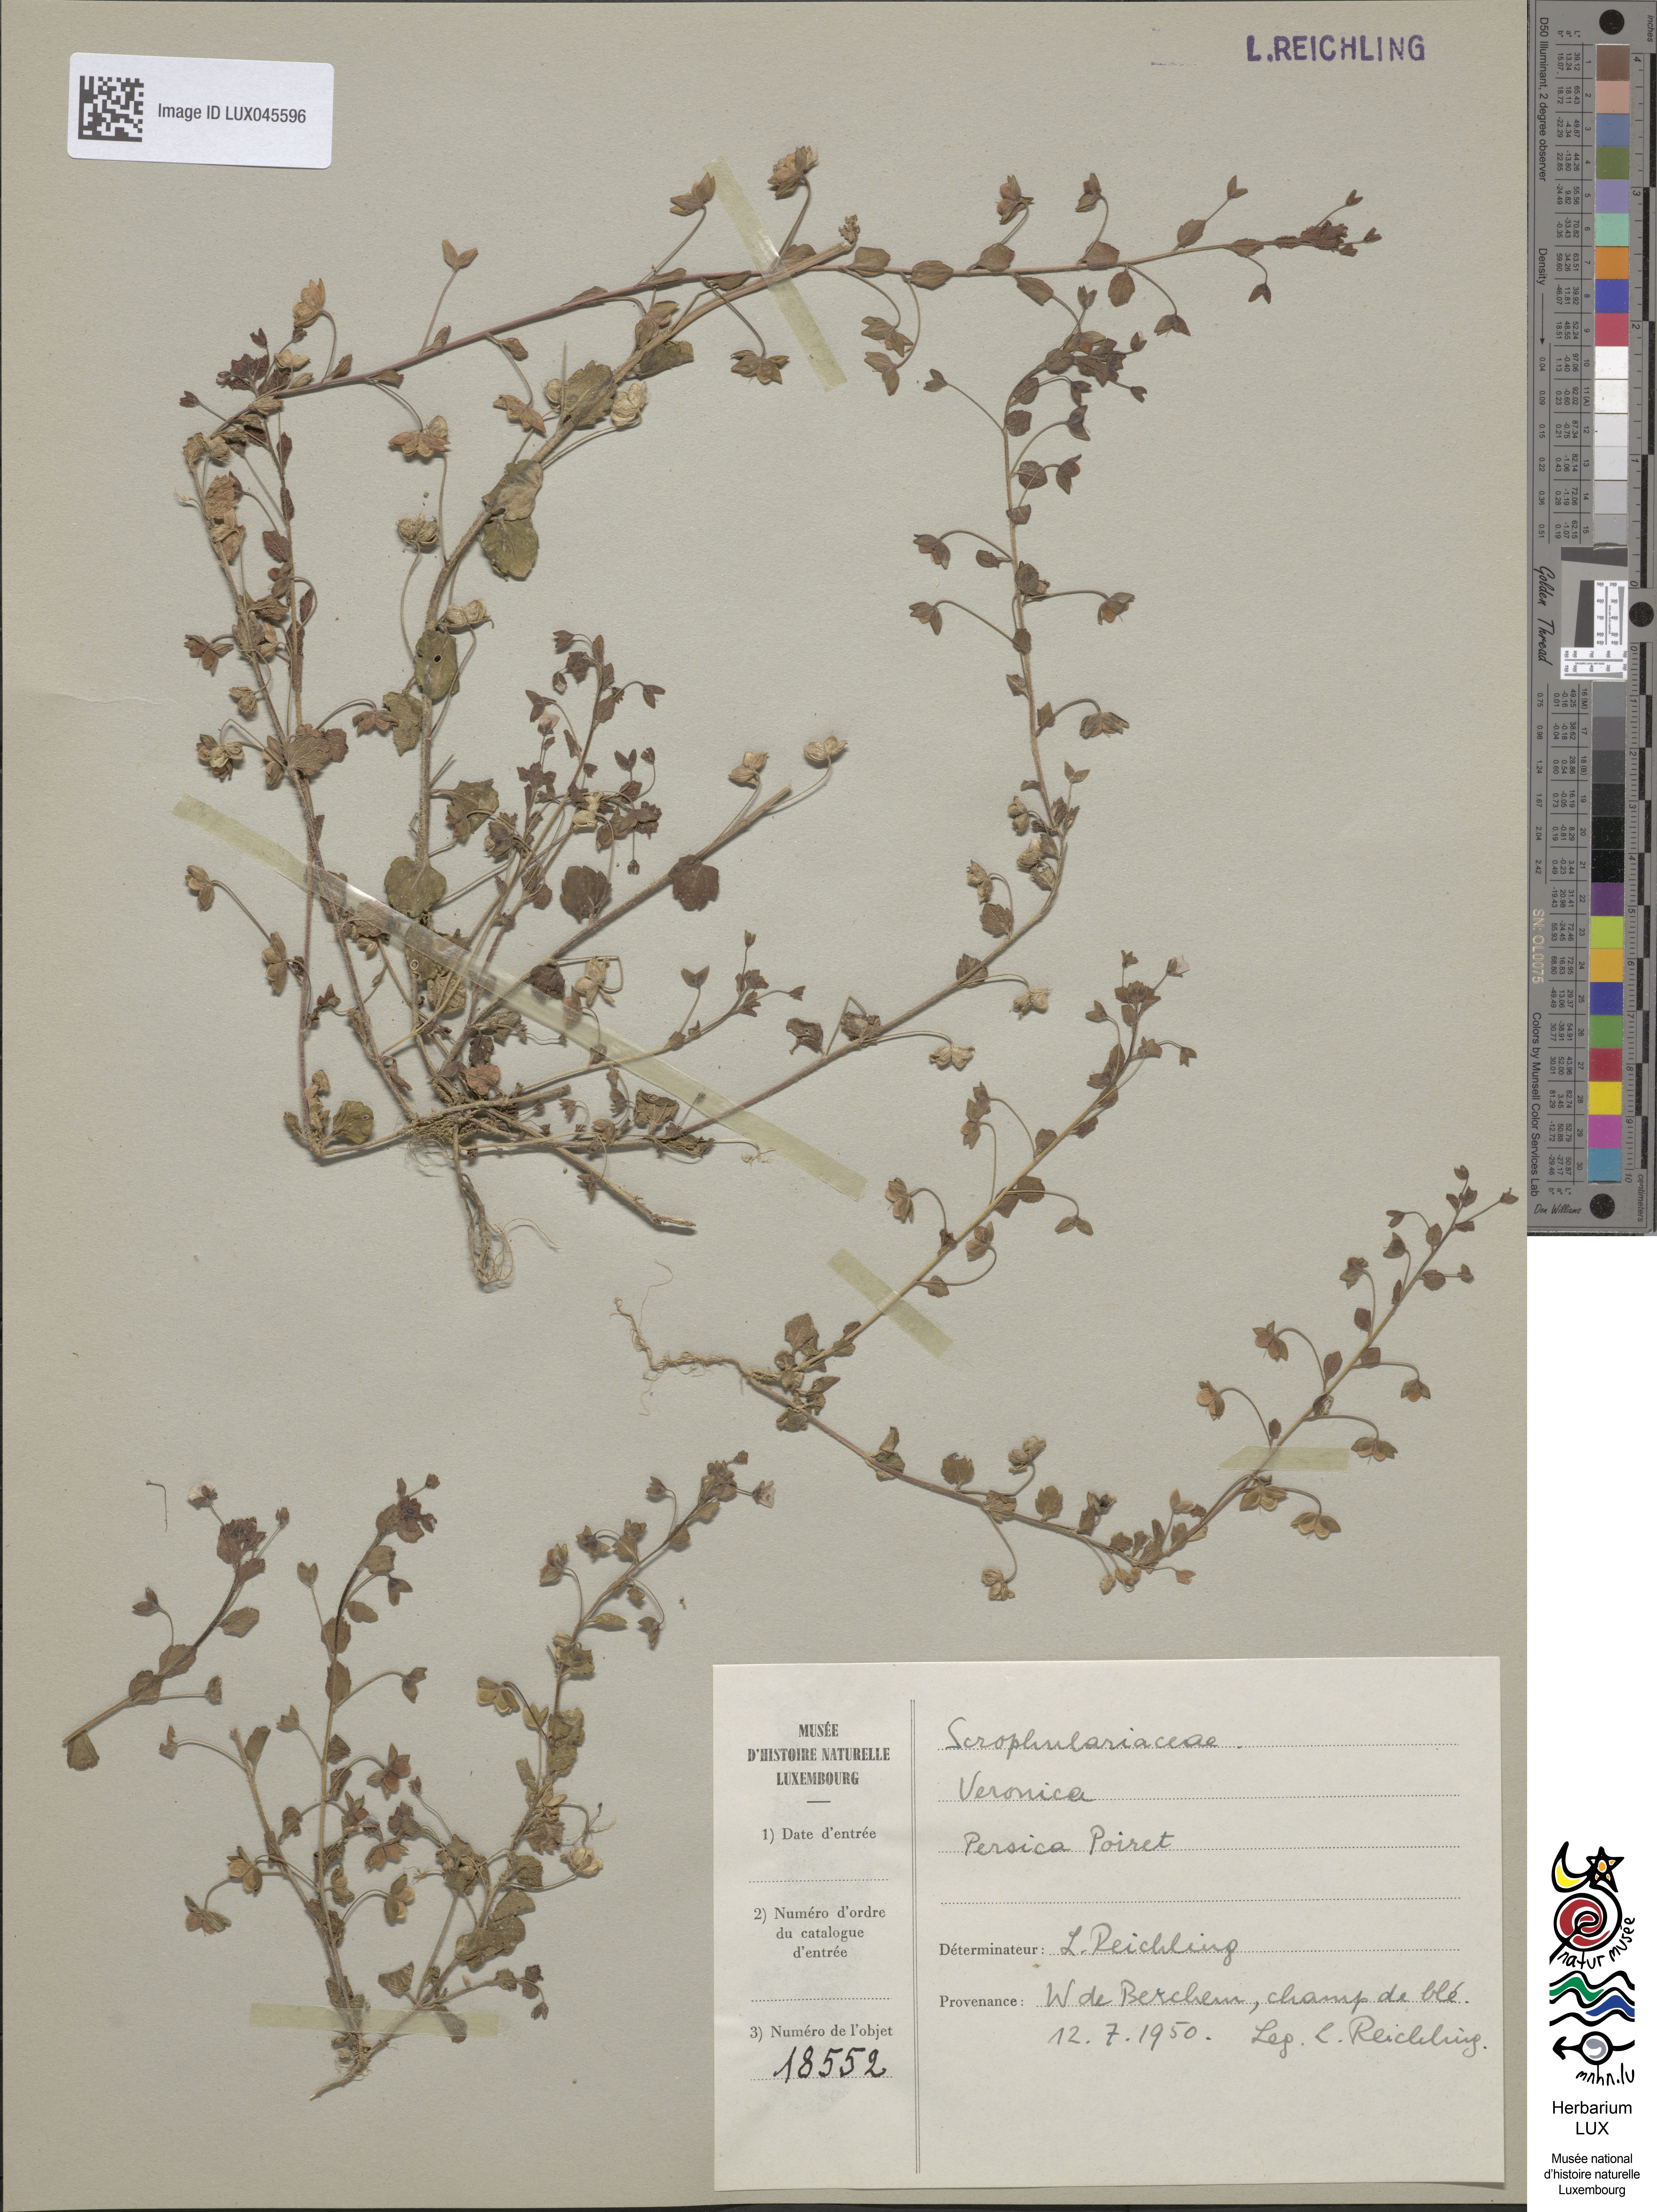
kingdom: Plantae
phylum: Tracheophyta
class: Magnoliopsida
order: Lamiales
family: Plantaginaceae
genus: Veronica
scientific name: Veronica persica
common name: Common field-speedwell
